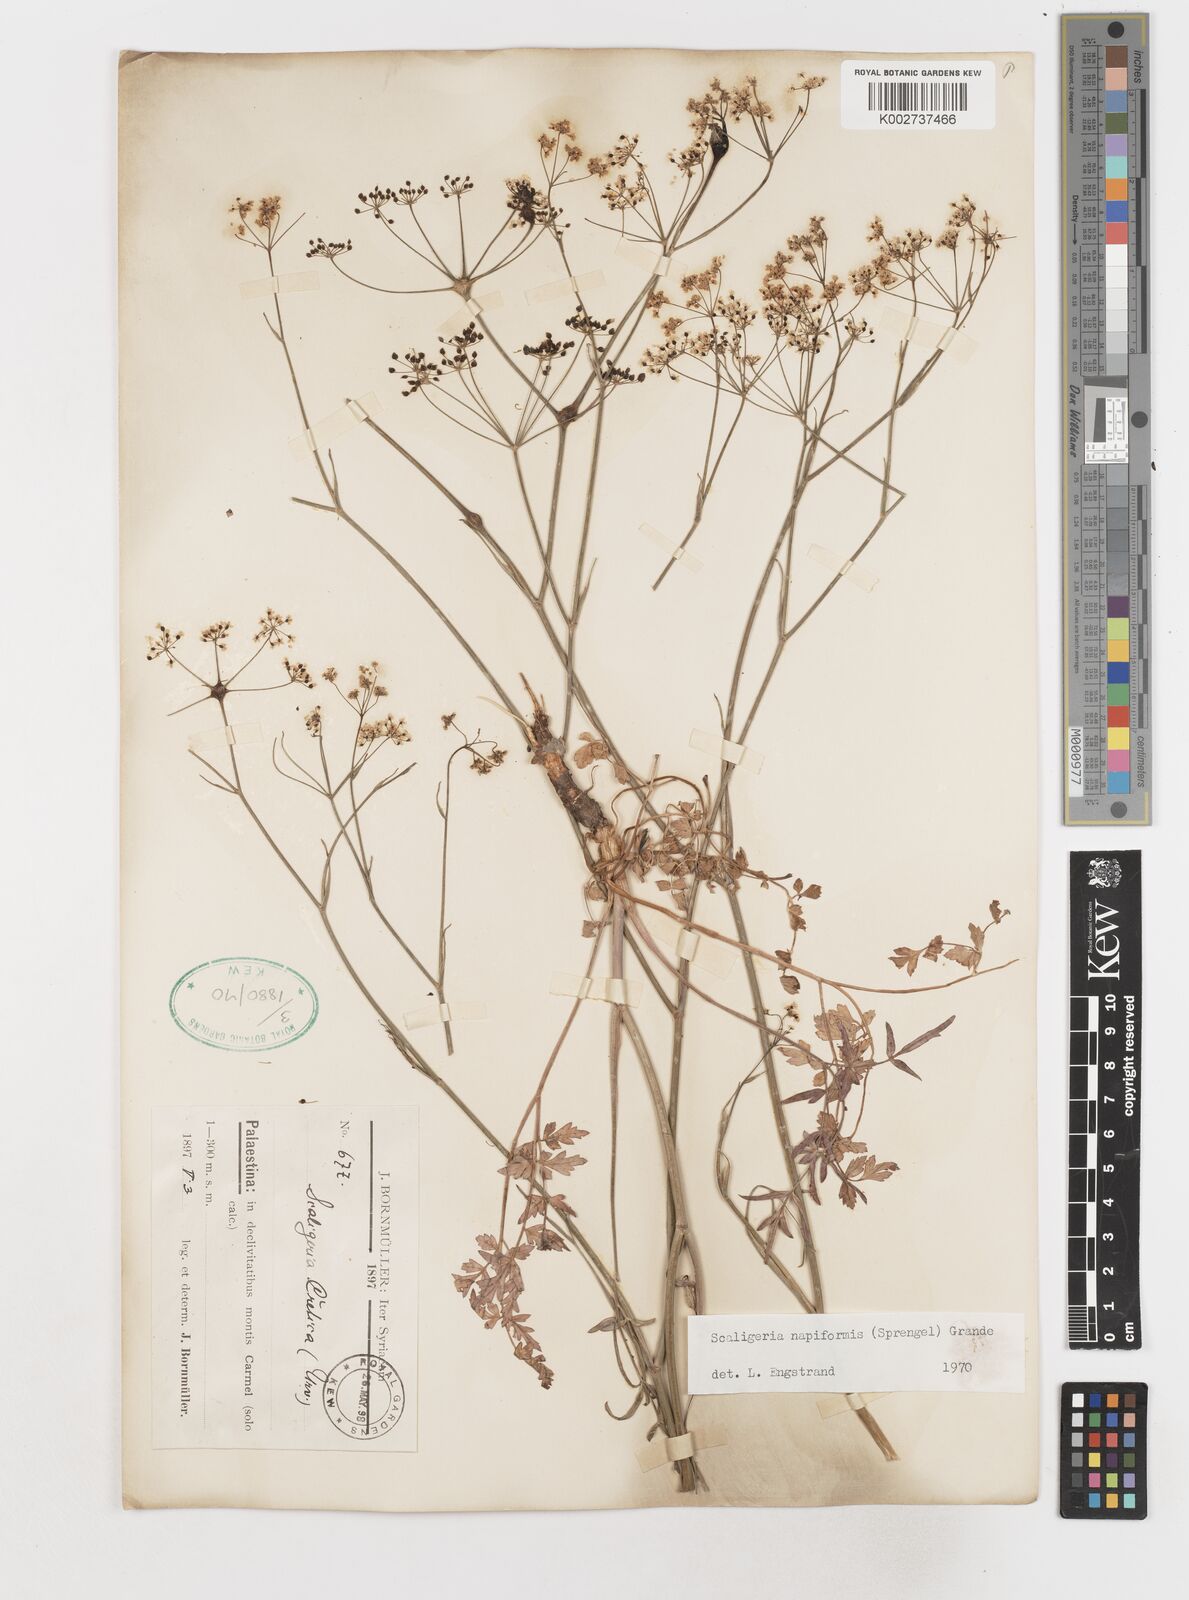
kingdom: Plantae
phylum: Tracheophyta
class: Magnoliopsida
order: Apiales
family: Apiaceae
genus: Scaligeria
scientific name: Scaligeria
